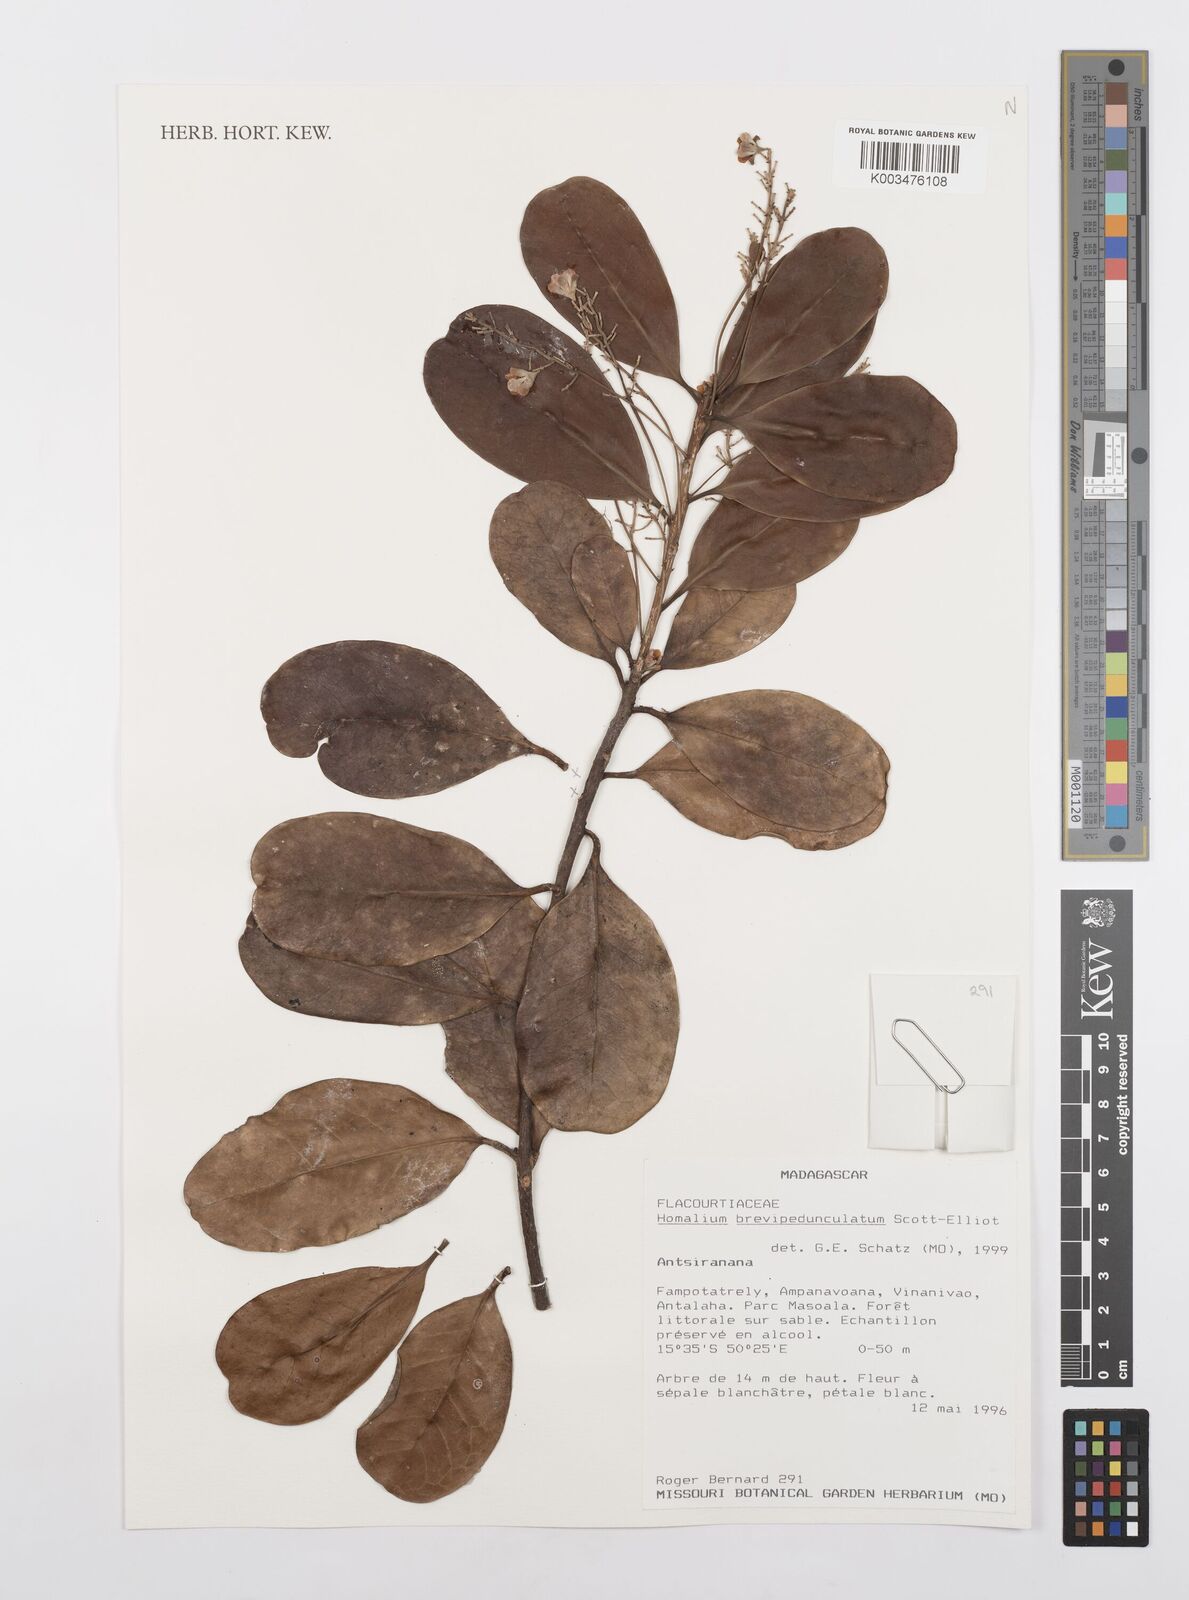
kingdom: Plantae
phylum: Tracheophyta
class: Magnoliopsida
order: Malpighiales
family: Salicaceae
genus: Homalium
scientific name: Homalium brevipedunculatum
